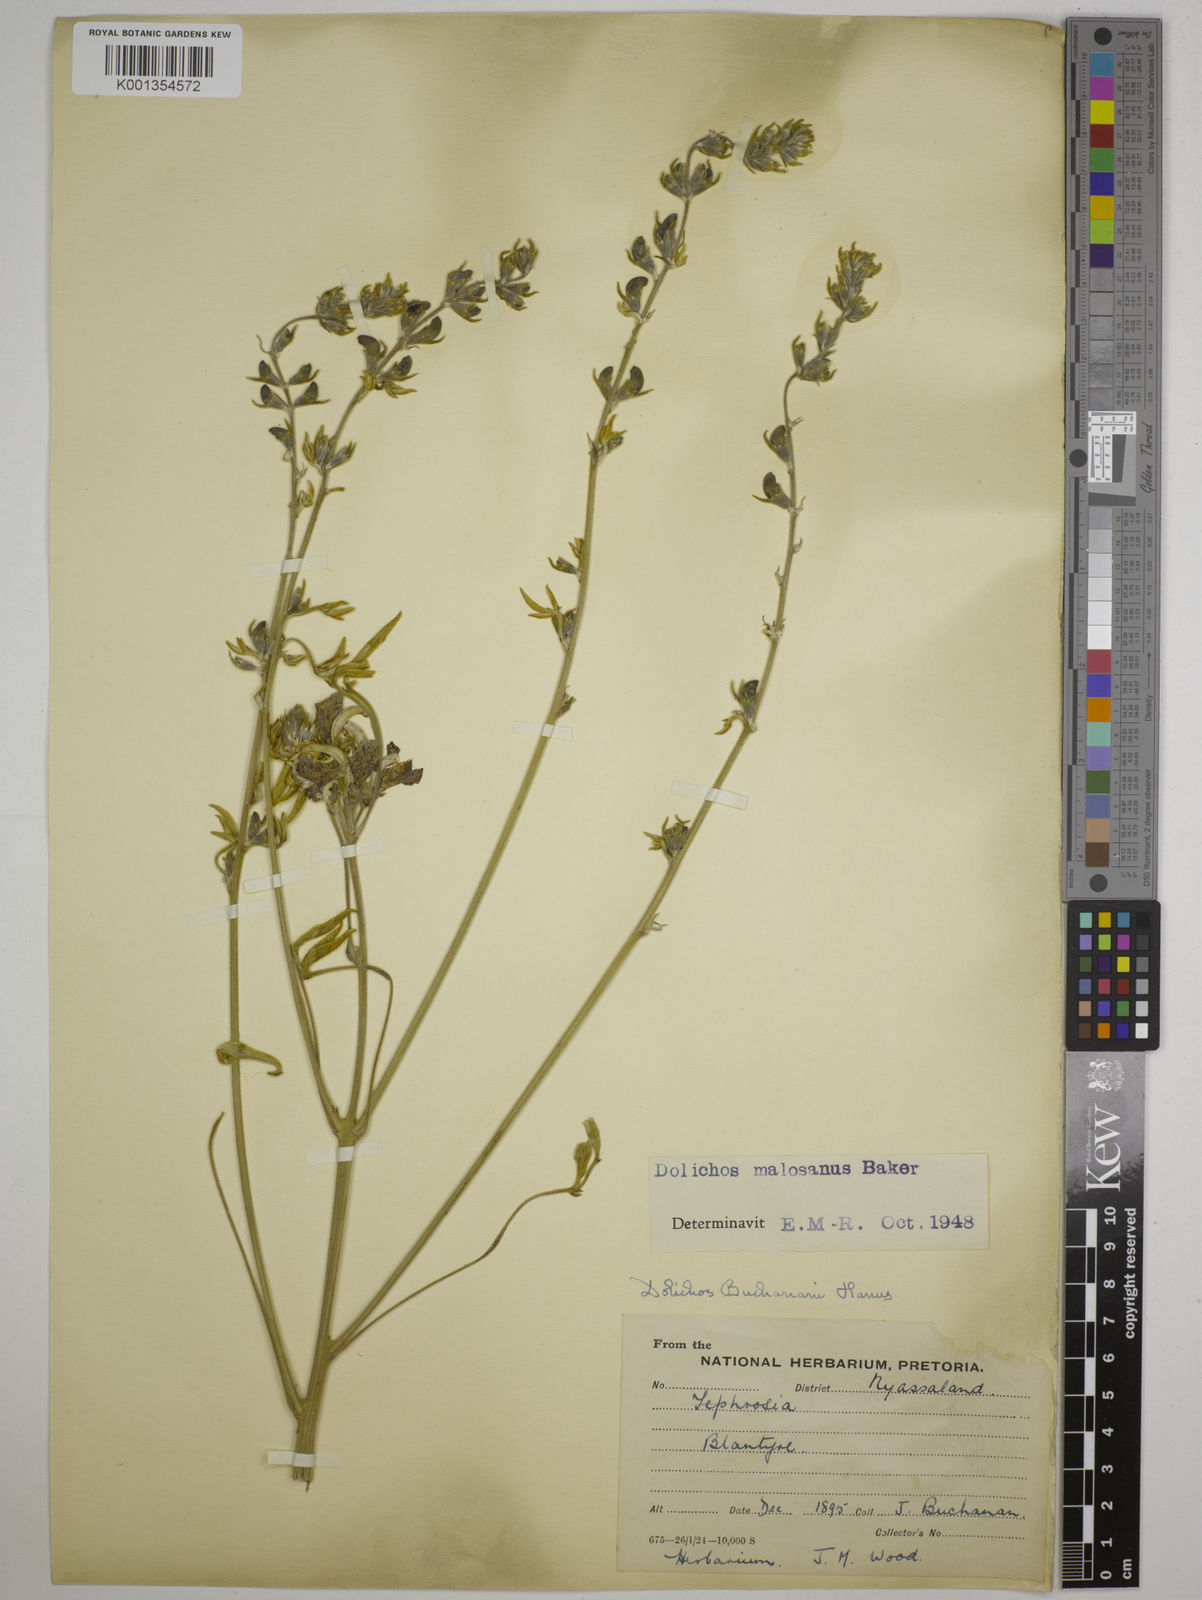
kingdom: Plantae
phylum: Tracheophyta
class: Magnoliopsida
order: Fabales
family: Fabaceae
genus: Dolichos
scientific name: Dolichos kilimandscharicus
